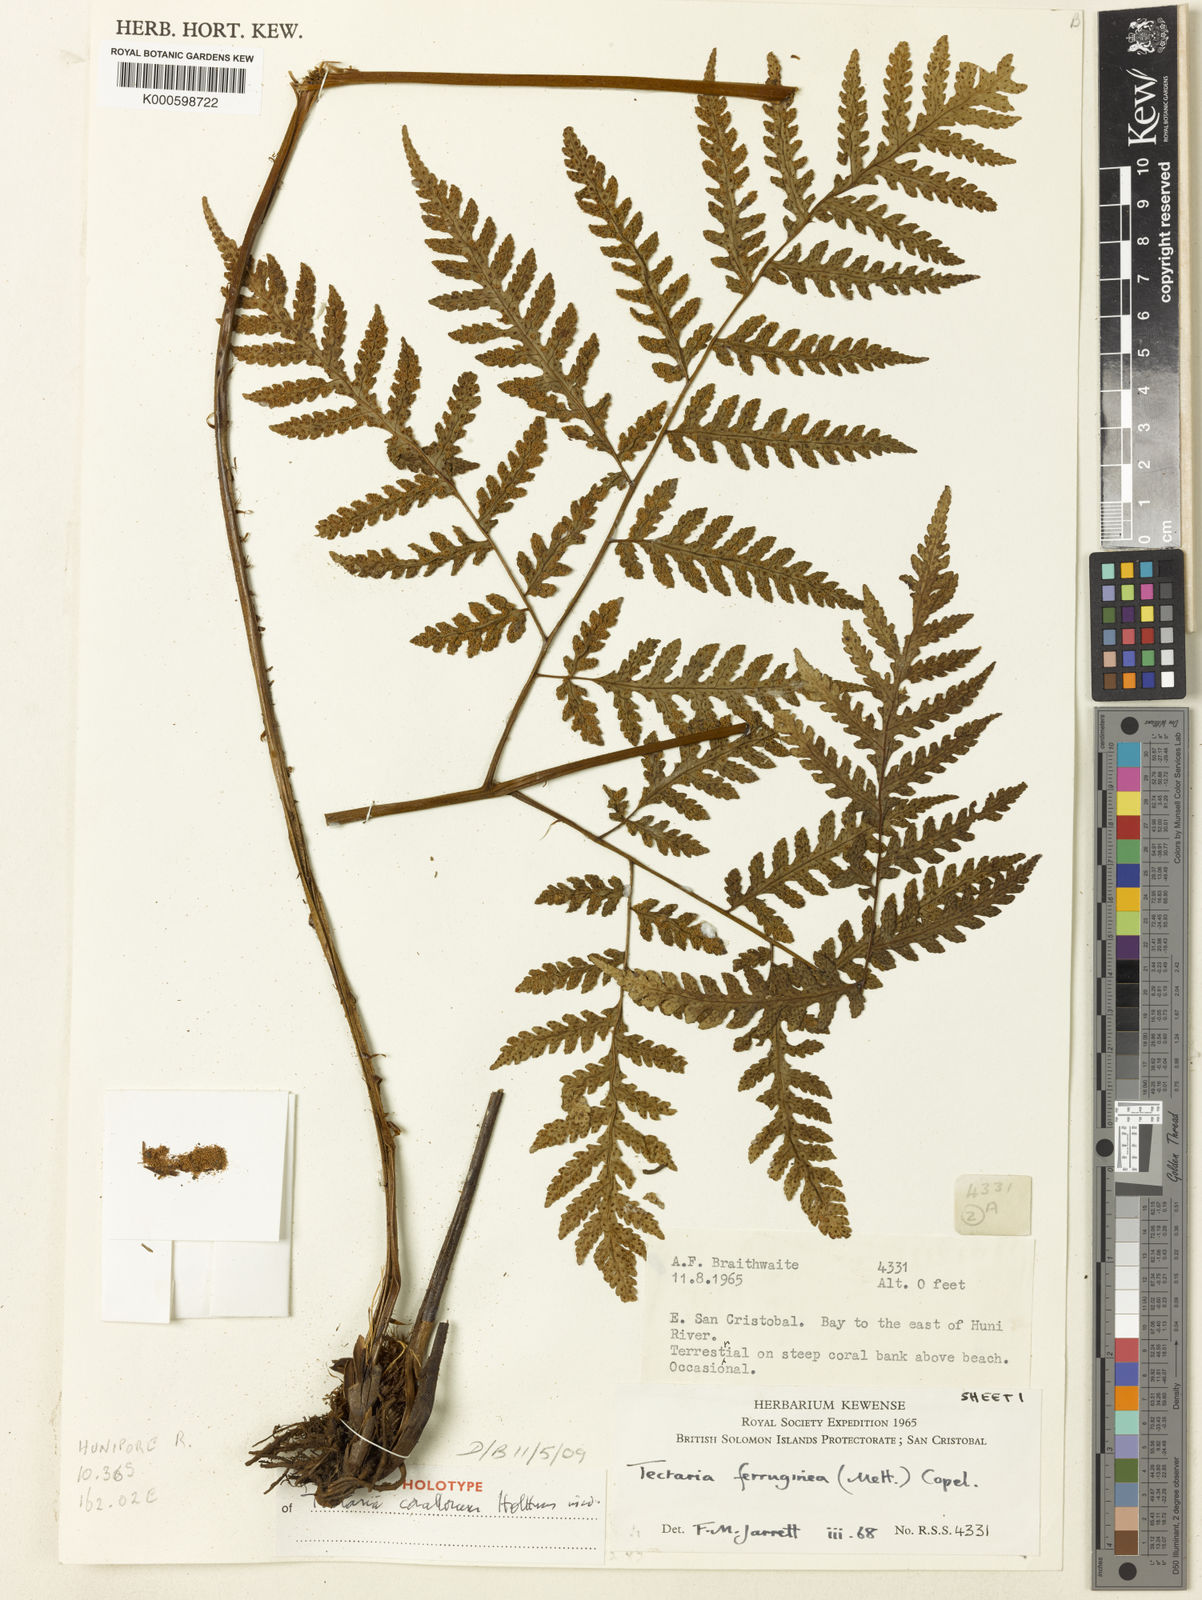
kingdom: Plantae
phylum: Tracheophyta
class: Polypodiopsida
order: Polypodiales
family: Tectariaceae
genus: Tectaria
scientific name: Tectaria
